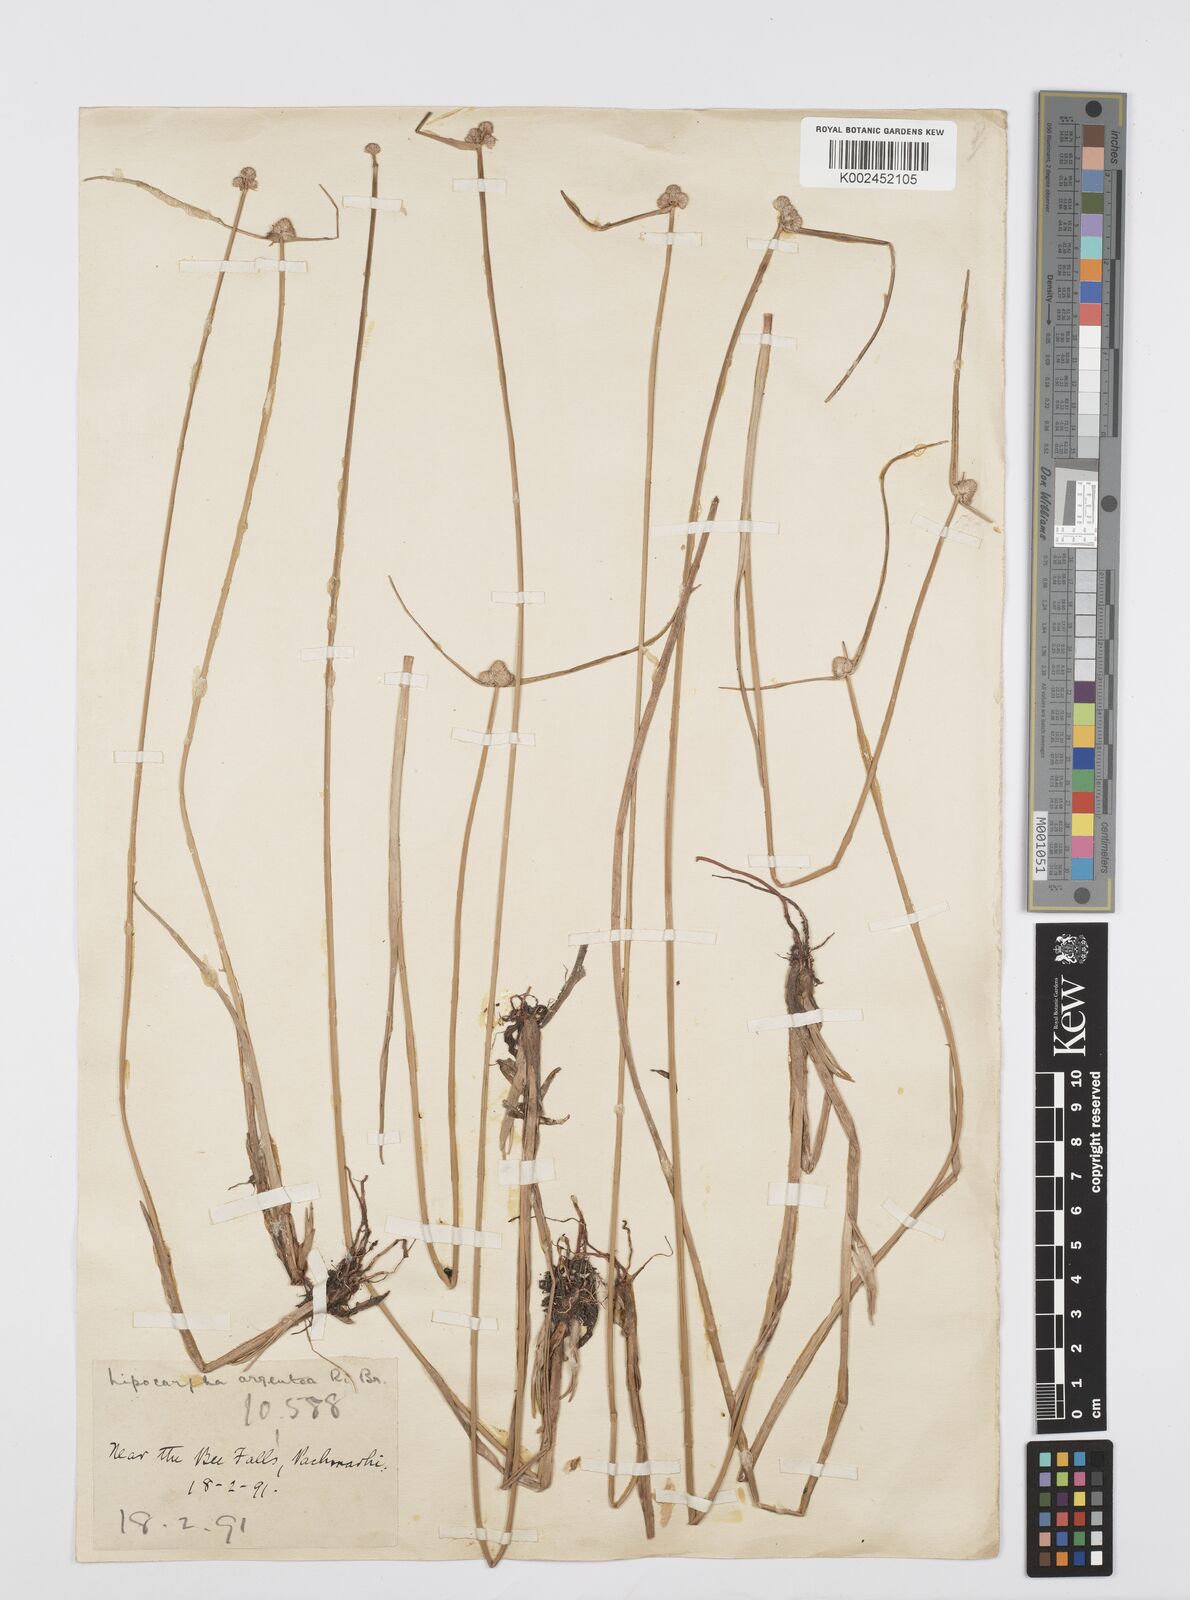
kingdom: Plantae
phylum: Tracheophyta
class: Liliopsida
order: Poales
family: Cyperaceae
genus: Cyperus
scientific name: Cyperus
